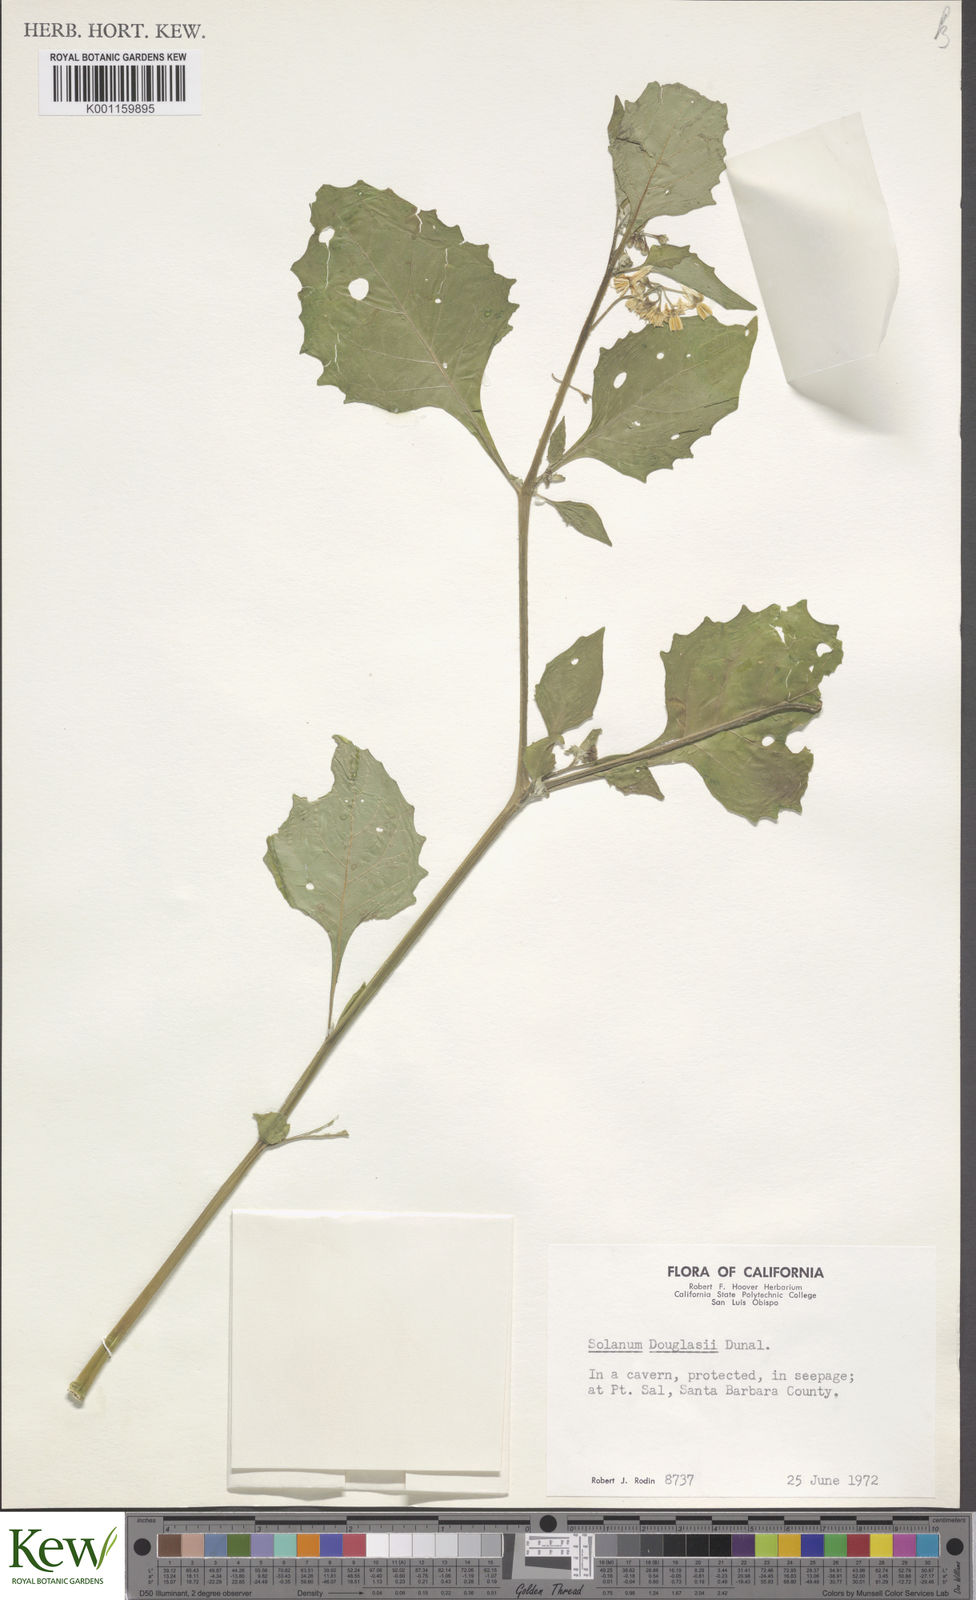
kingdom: Plantae
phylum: Tracheophyta
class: Magnoliopsida
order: Solanales
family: Solanaceae
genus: Solanum
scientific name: Solanum douglasii
